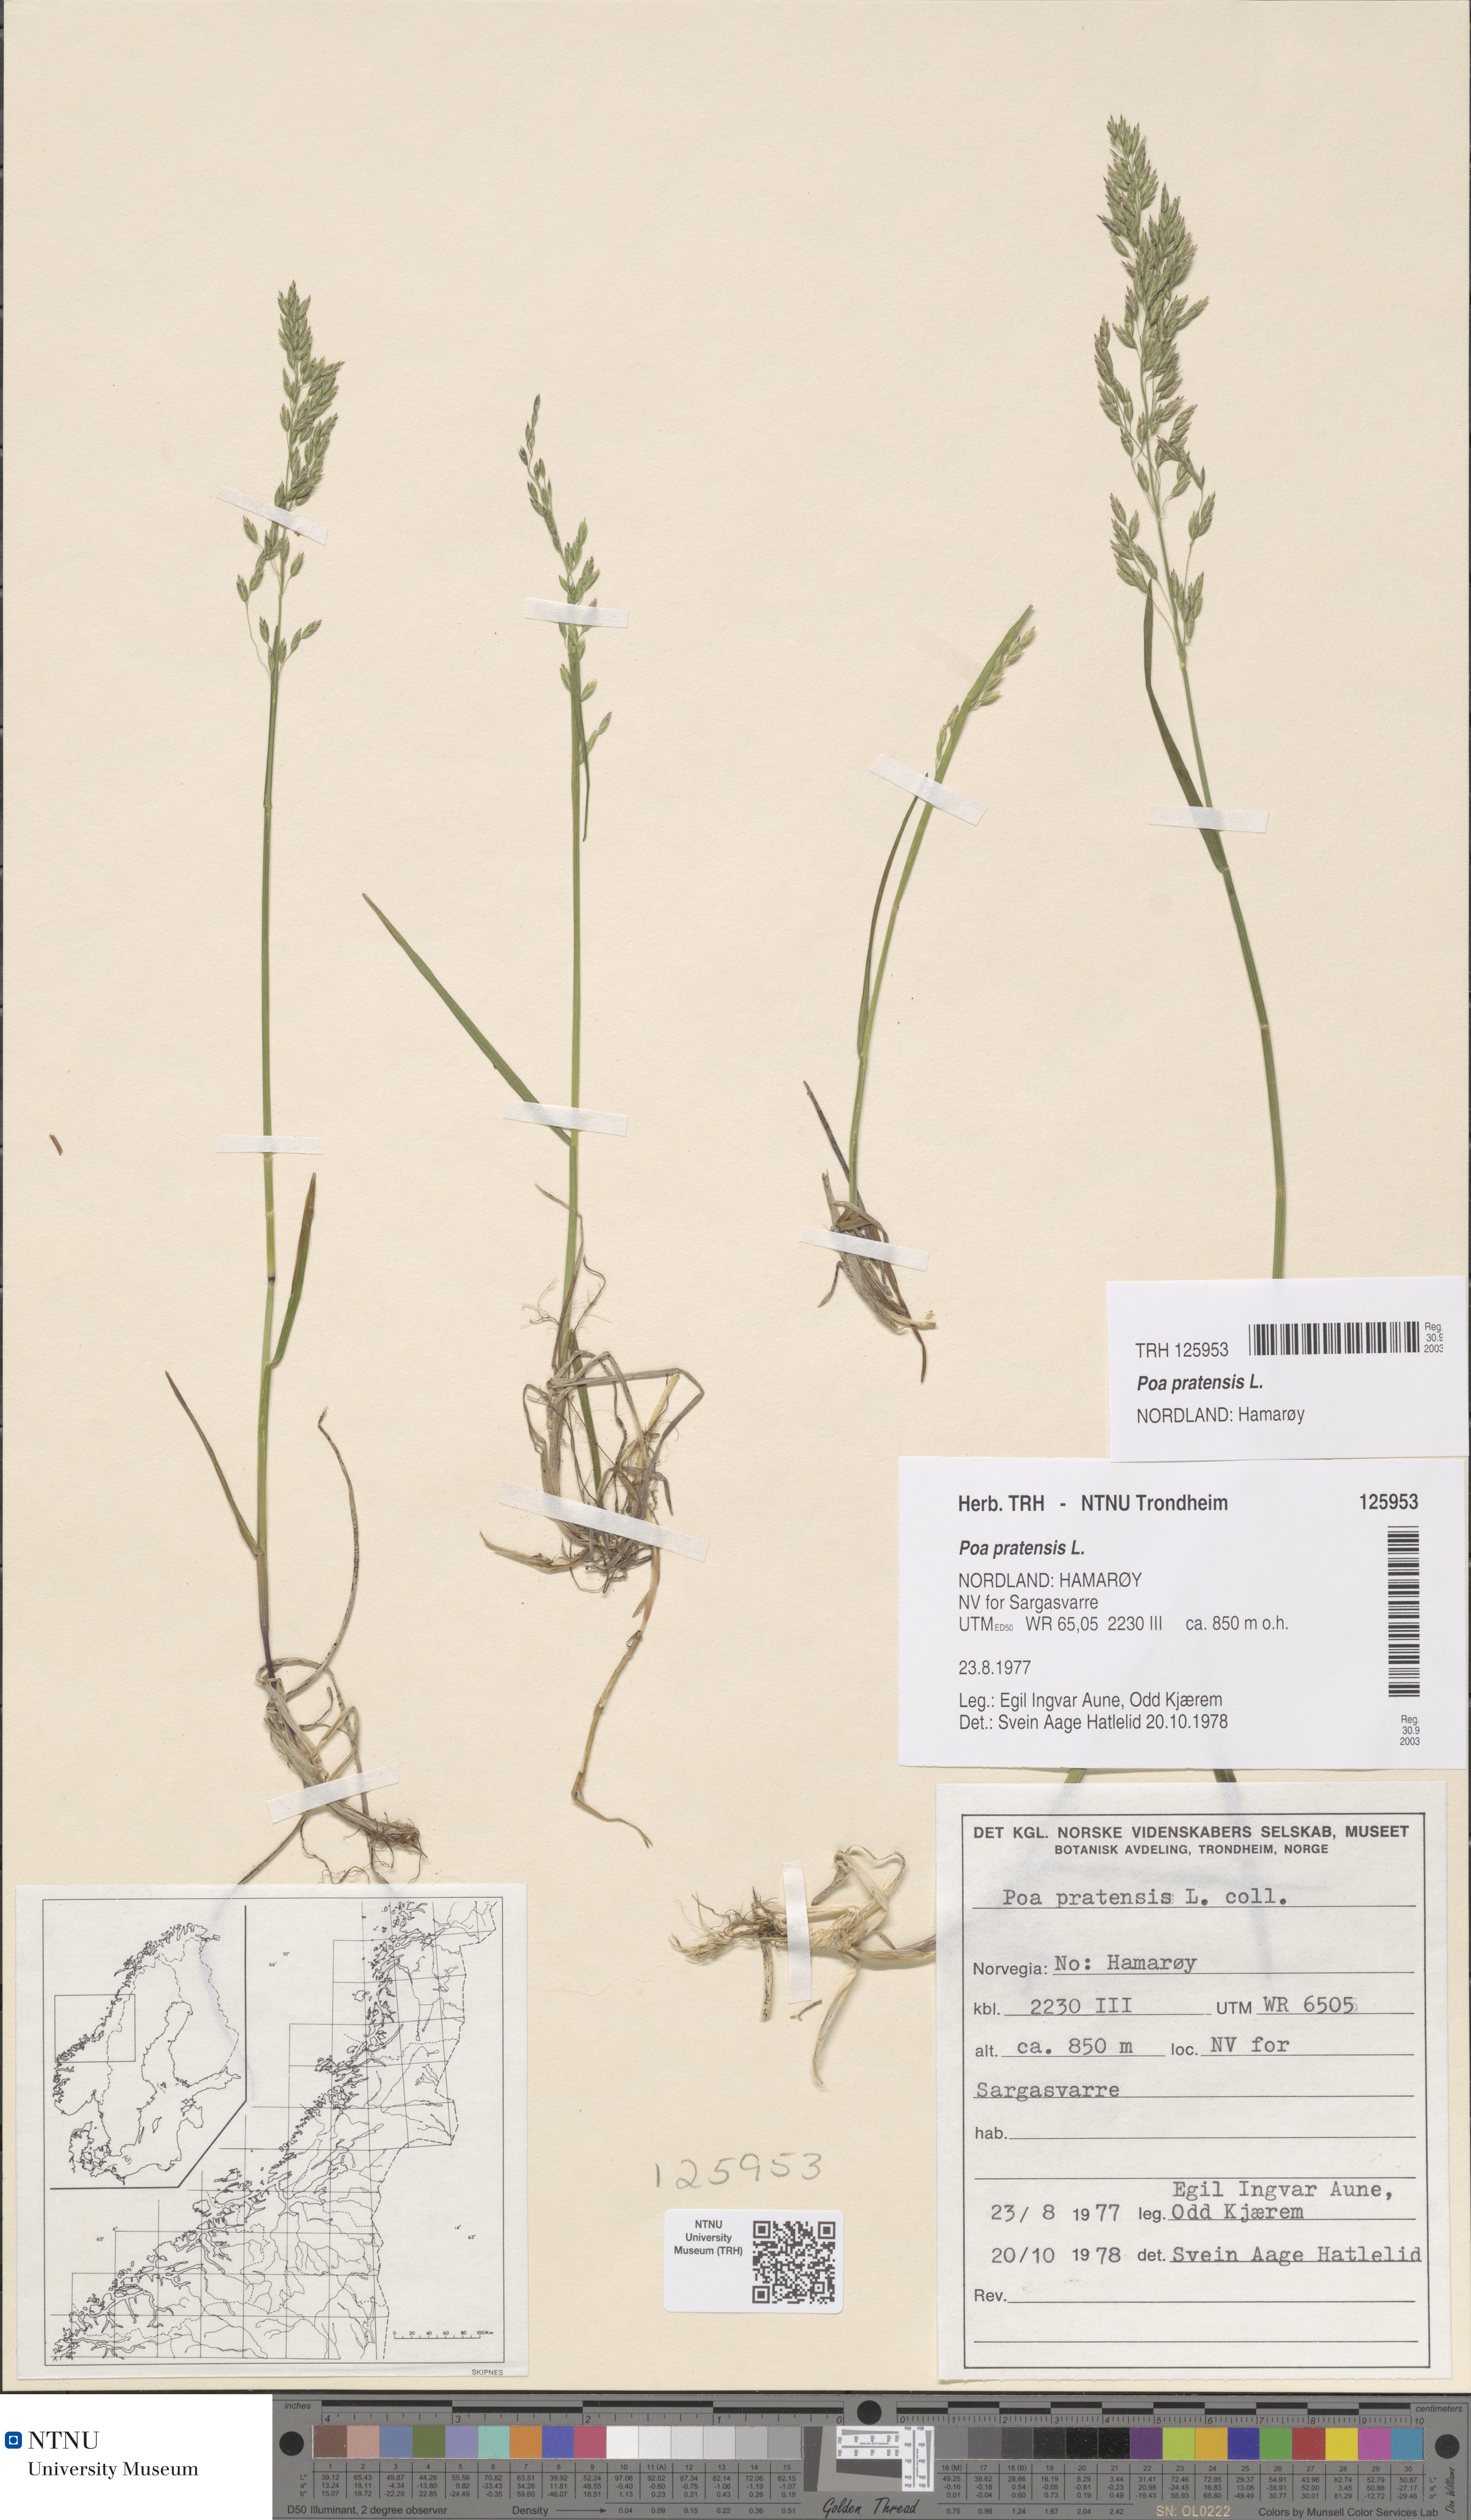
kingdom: Plantae
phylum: Tracheophyta
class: Liliopsida
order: Poales
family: Poaceae
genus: Poa
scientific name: Poa pratensis
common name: Kentucky bluegrass
